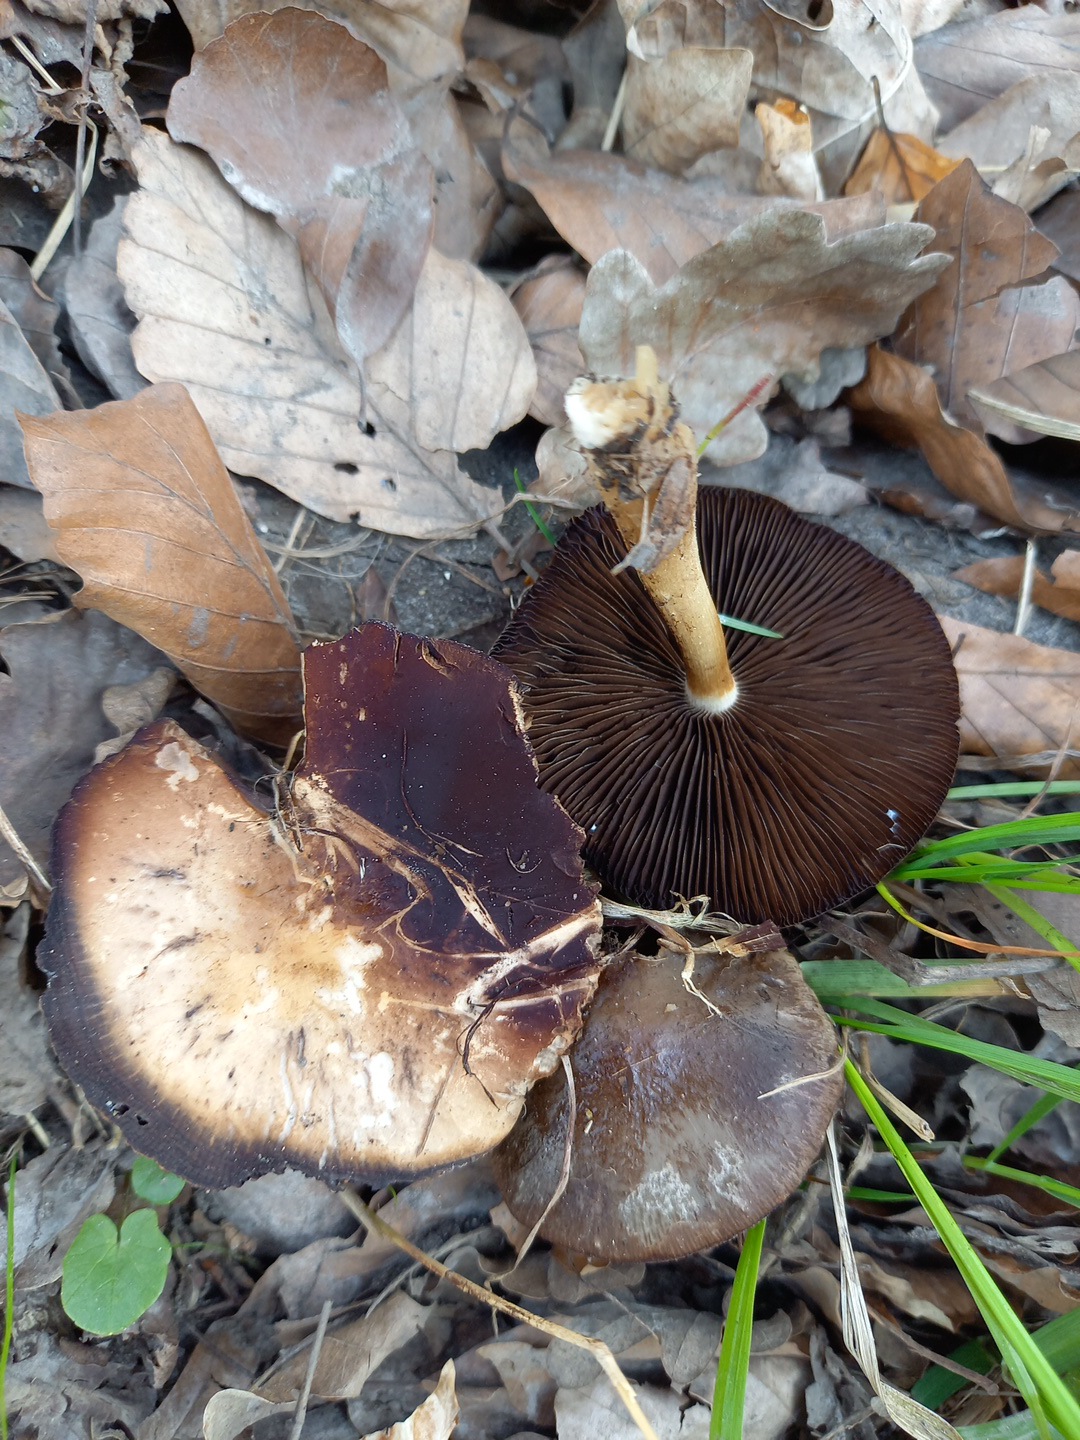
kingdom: Fungi
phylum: Basidiomycota
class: Agaricomycetes
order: Agaricales
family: Psathyrellaceae
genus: Psathyrella
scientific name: Psathyrella spadiceogrisea
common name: gråbrun mørkhat
